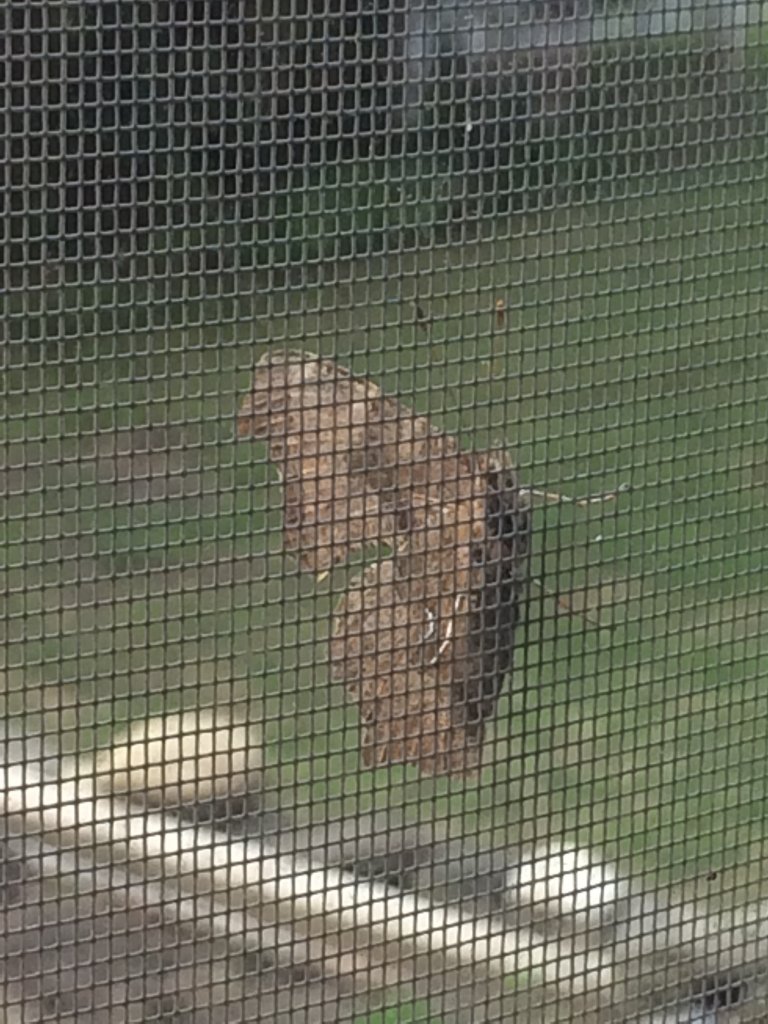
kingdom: Animalia
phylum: Arthropoda
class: Insecta
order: Lepidoptera
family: Nymphalidae
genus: Polygonia
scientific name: Polygonia comma
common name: Eastern Comma
